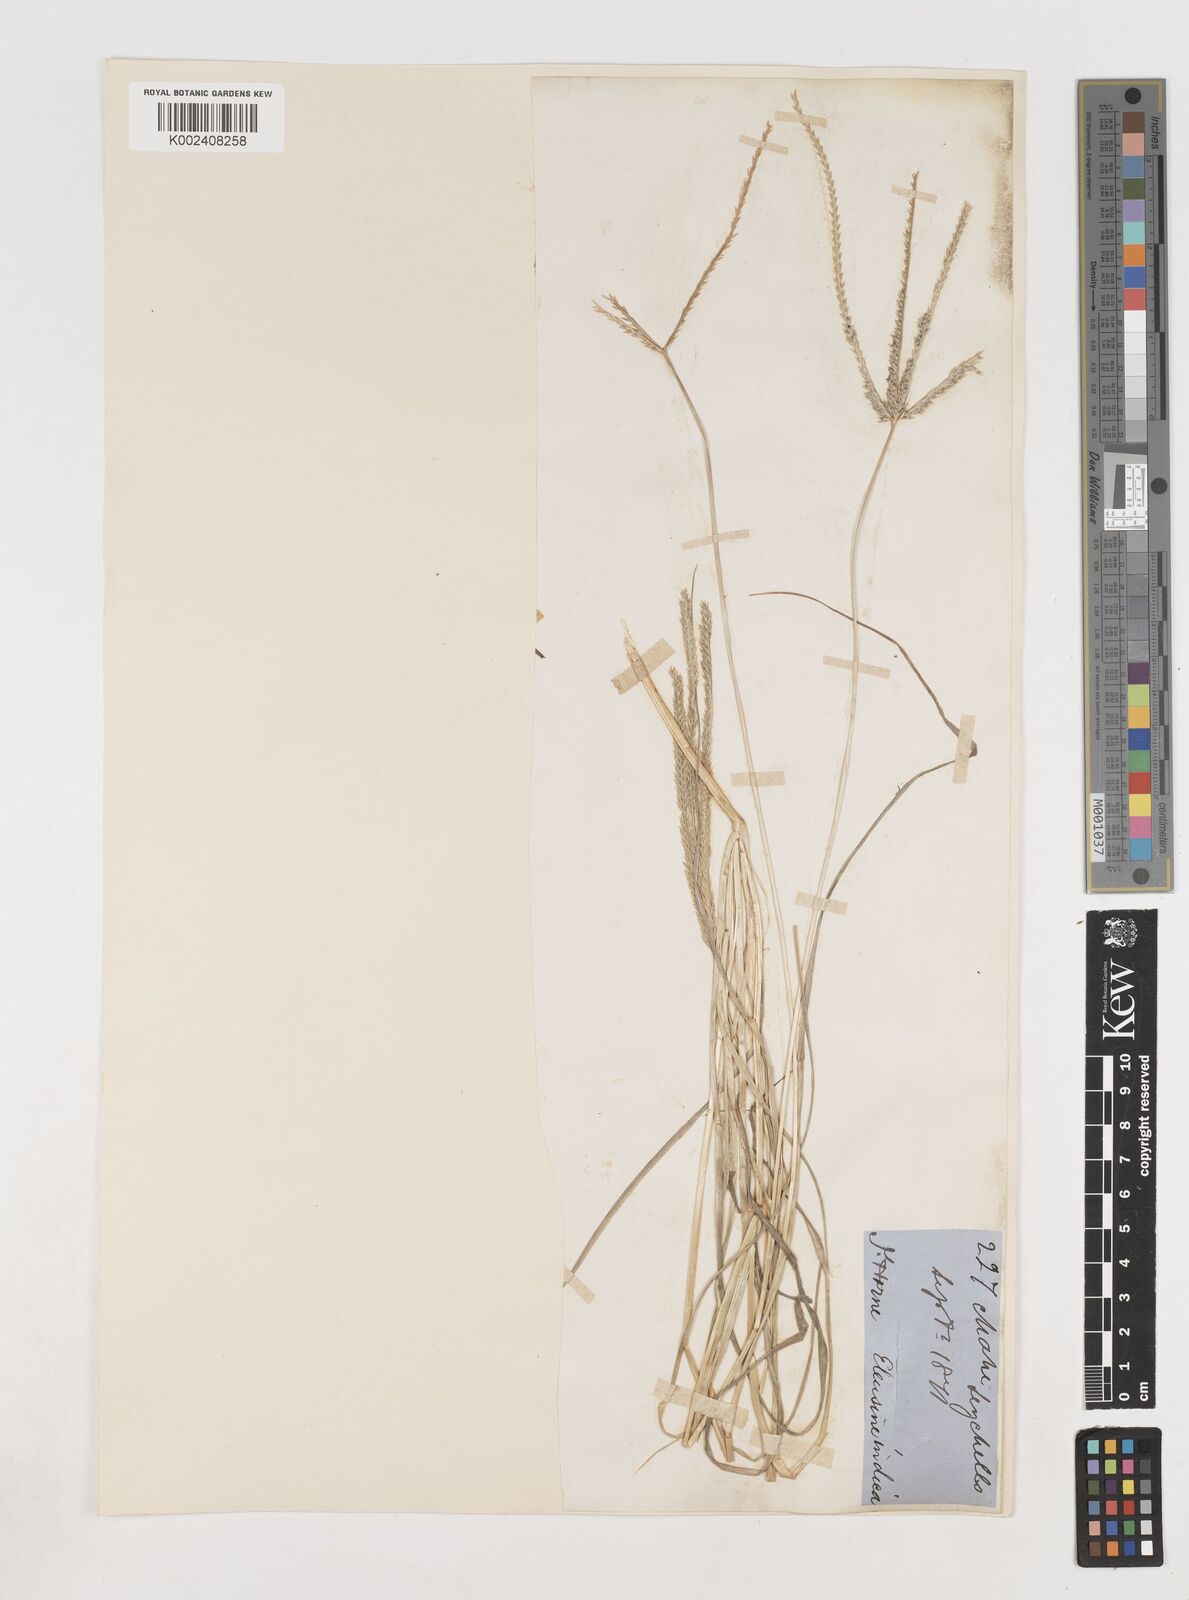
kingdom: Plantae
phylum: Tracheophyta
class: Liliopsida
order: Poales
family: Poaceae
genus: Eleusine
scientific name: Eleusine indica
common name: Yard-grass
